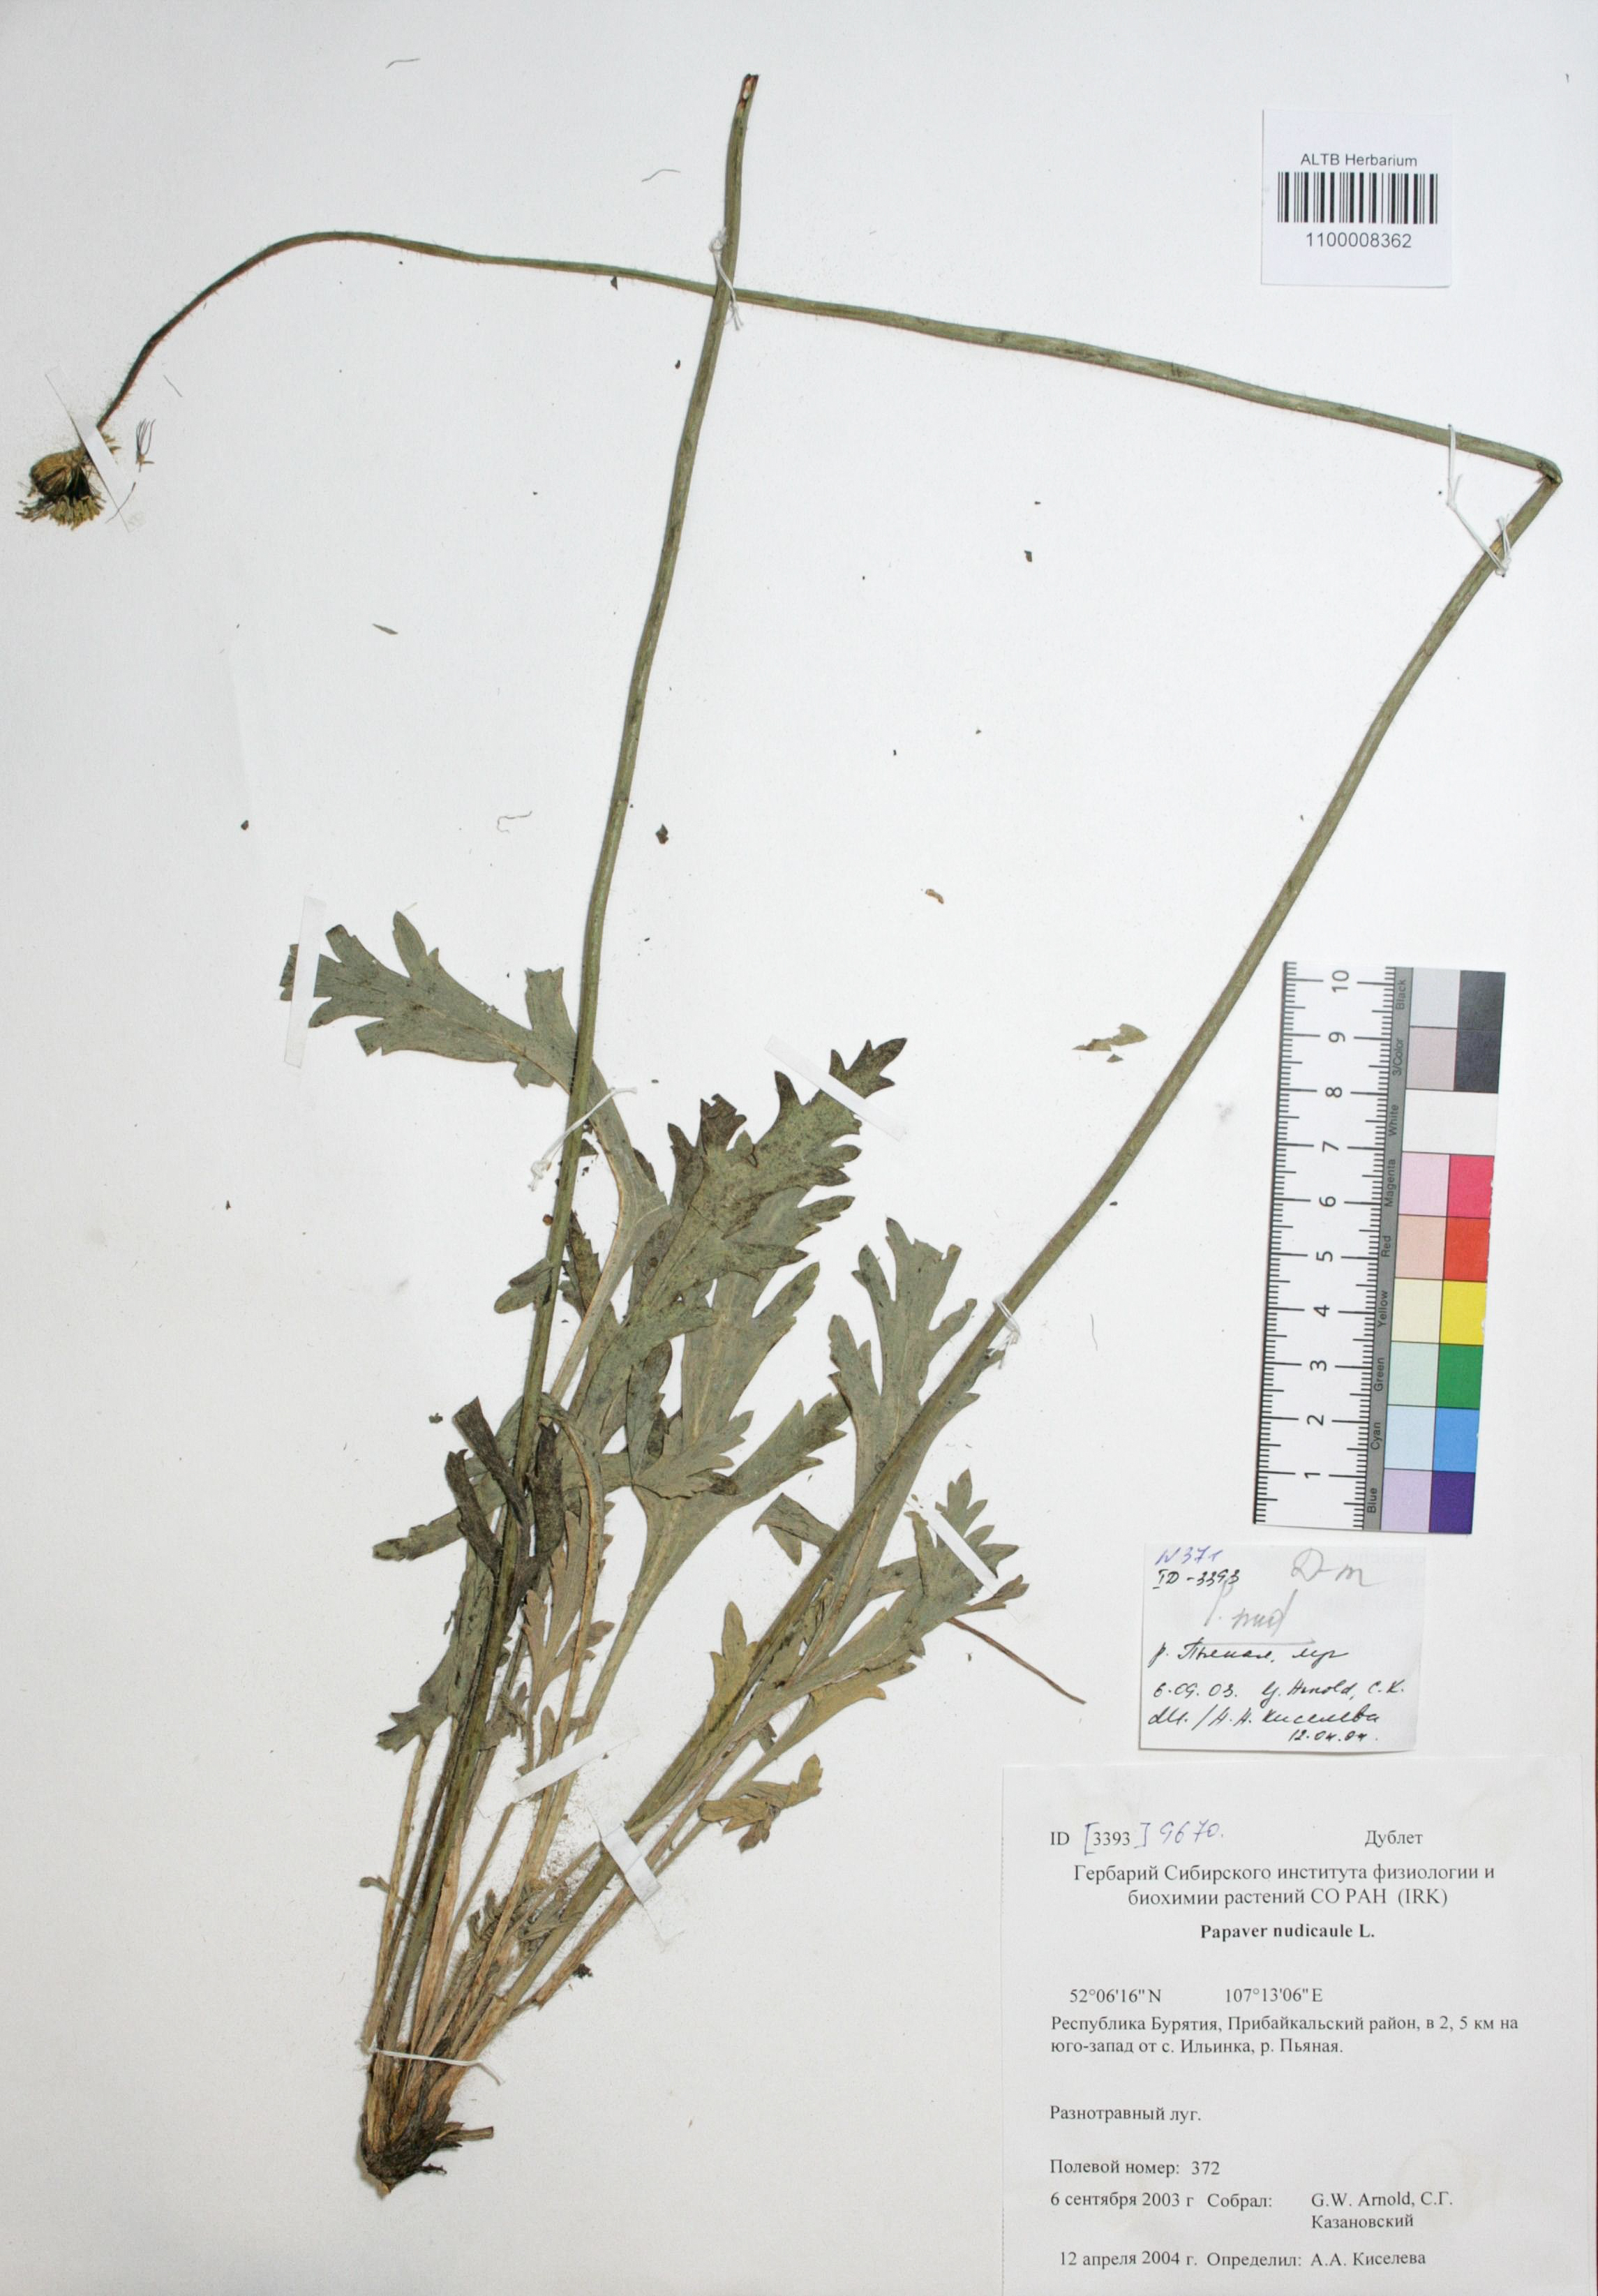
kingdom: Plantae
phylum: Tracheophyta
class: Magnoliopsida
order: Ranunculales
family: Papaveraceae
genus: Papaver
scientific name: Papaver nudicaule
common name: Arctic poppy
